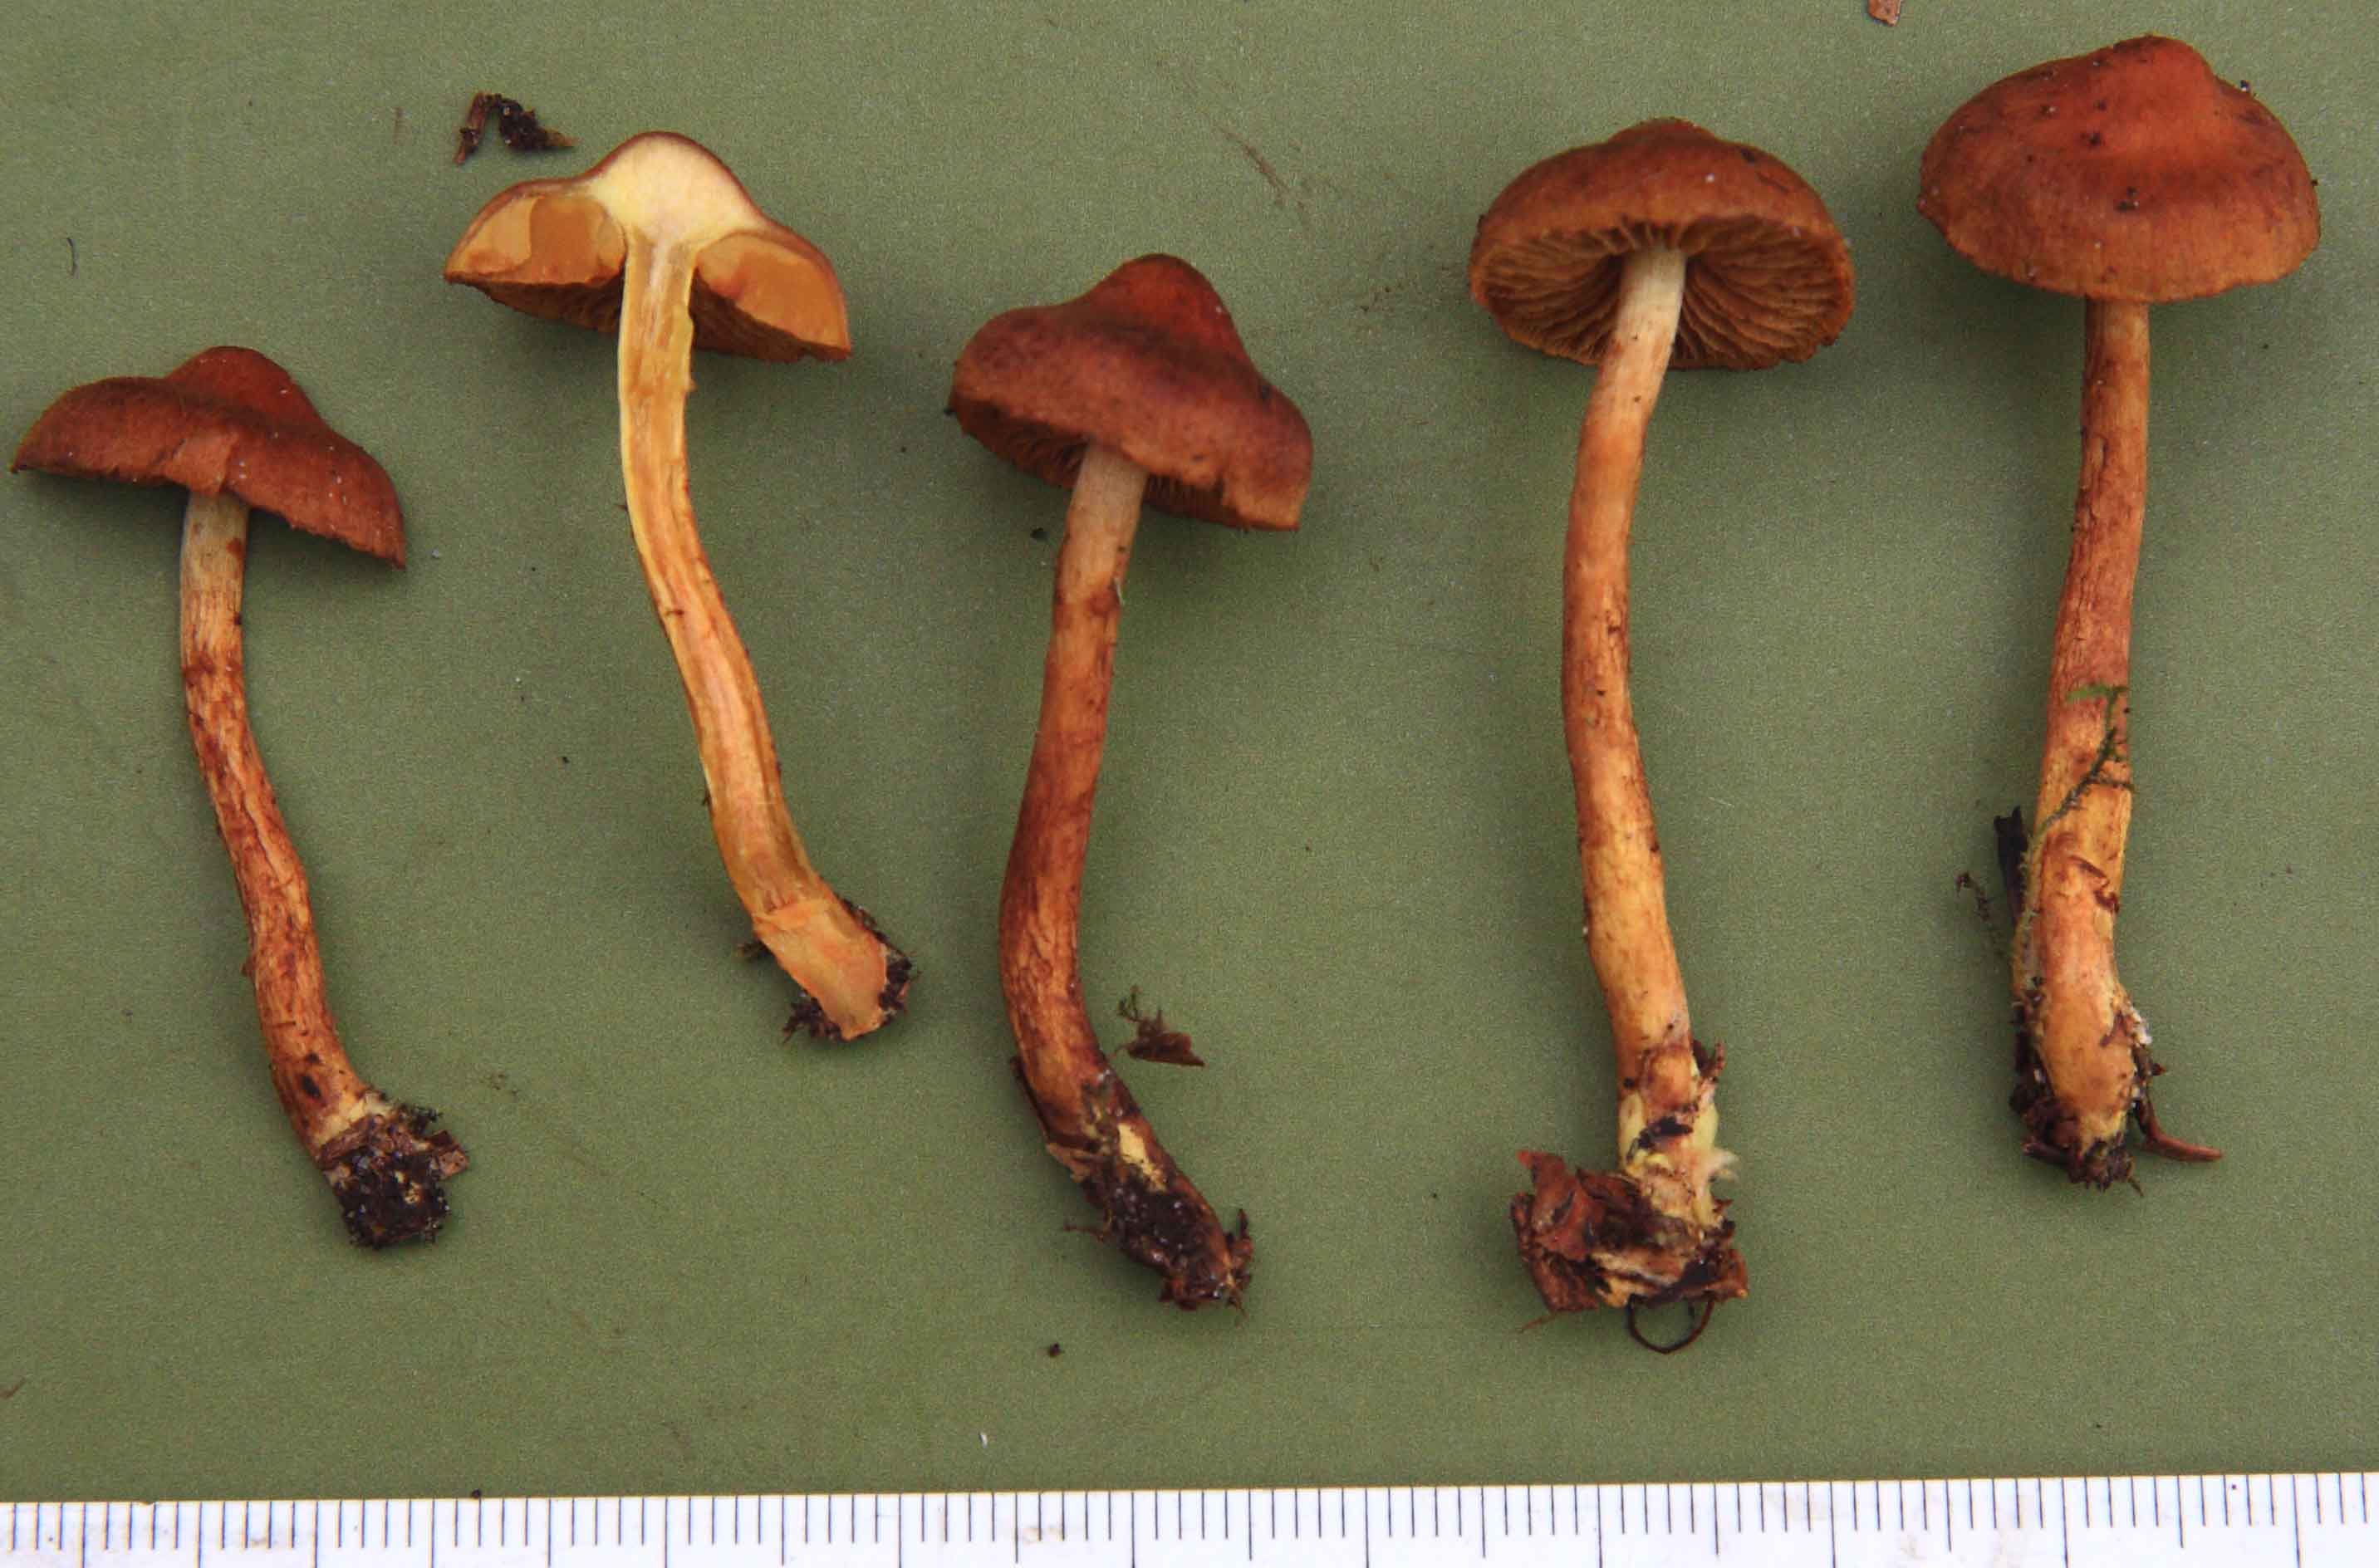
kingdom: Fungi
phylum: Basidiomycota
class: Agaricomycetes
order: Agaricales
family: Cortinariaceae
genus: Cortinarius
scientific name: Cortinarius malicorius
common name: safranpuklet slørhat
